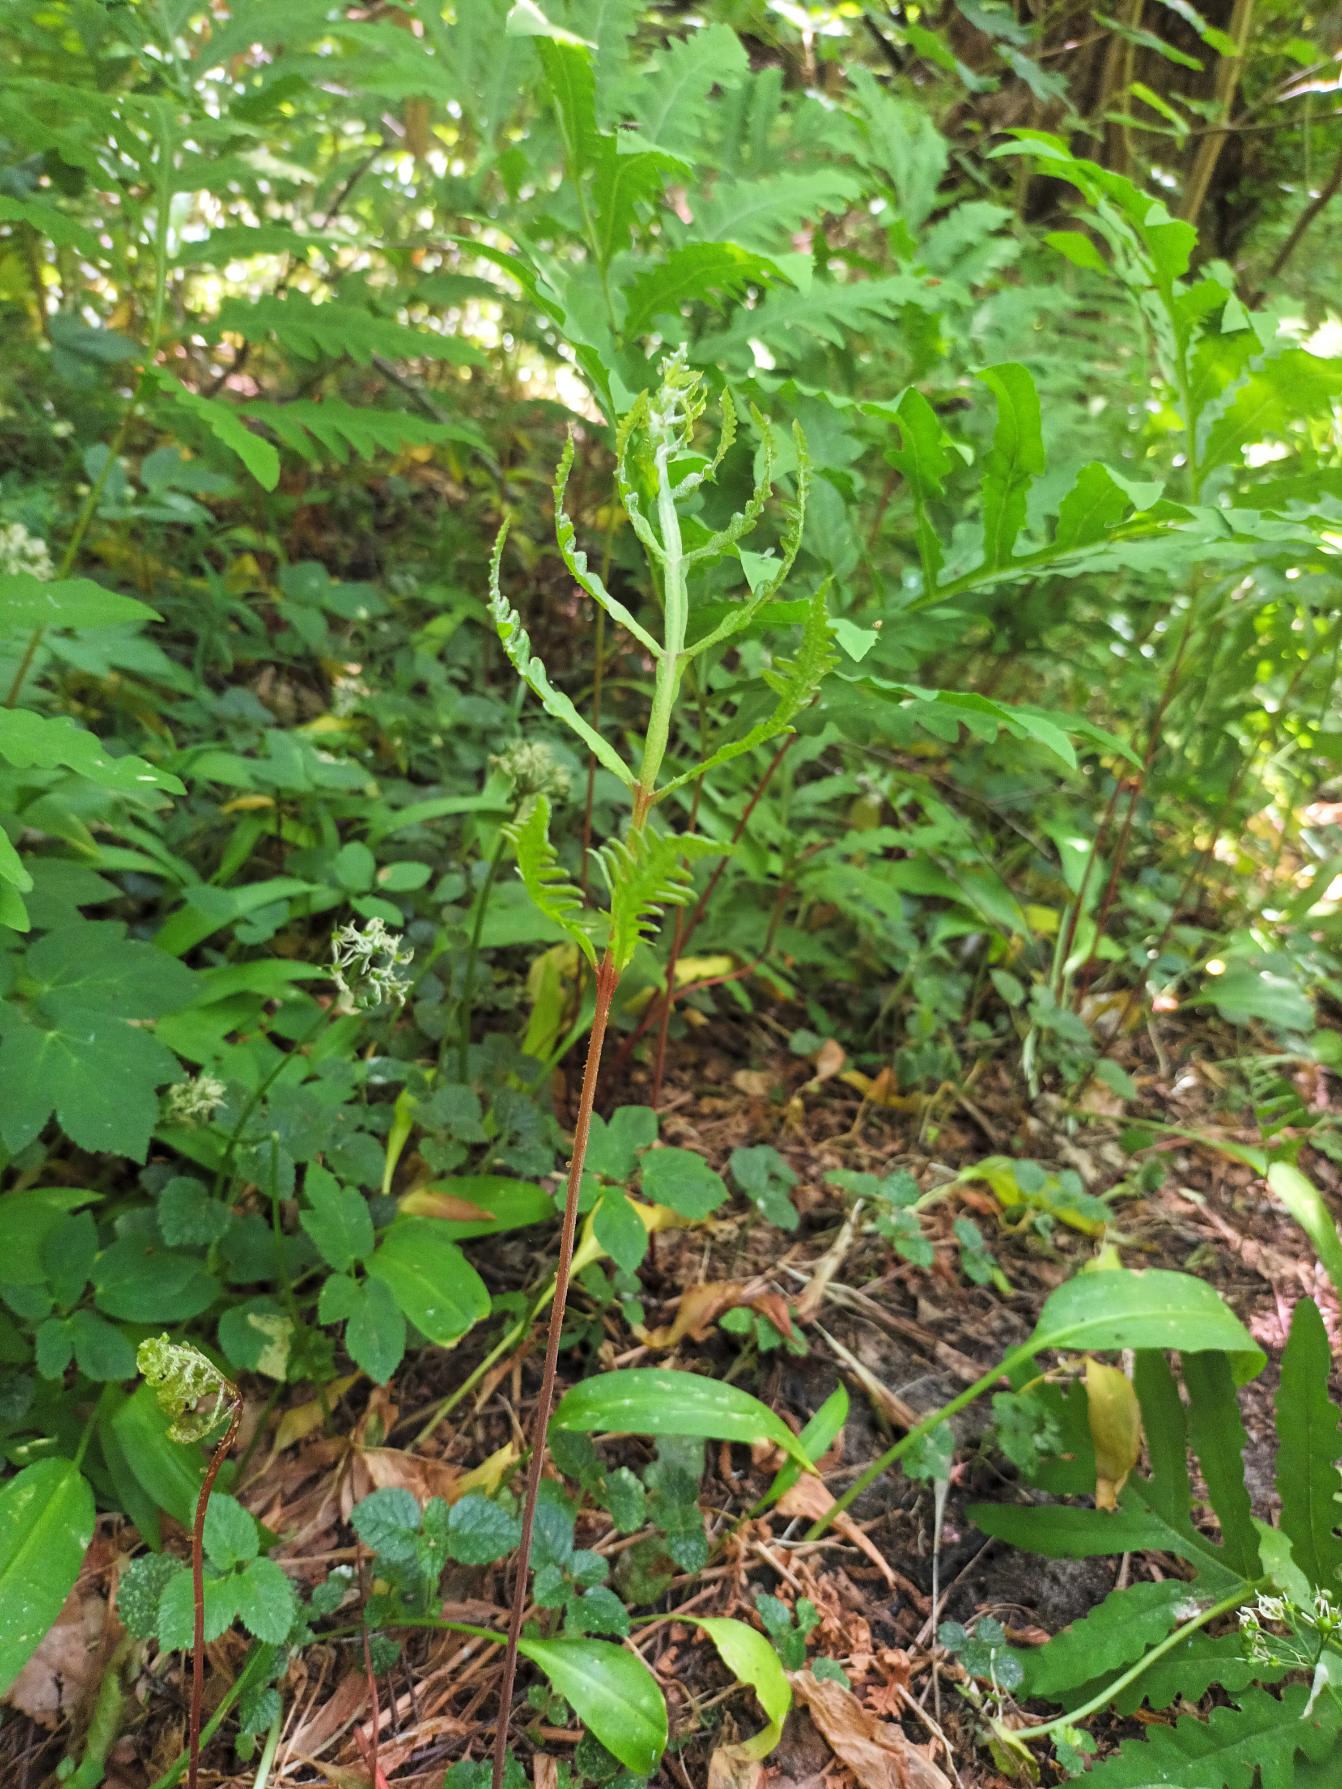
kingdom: Plantae
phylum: Tracheophyta
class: Polypodiopsida
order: Polypodiales
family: Onocleaceae
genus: Onoclea
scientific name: Onoclea sensibilis
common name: Druebregne
